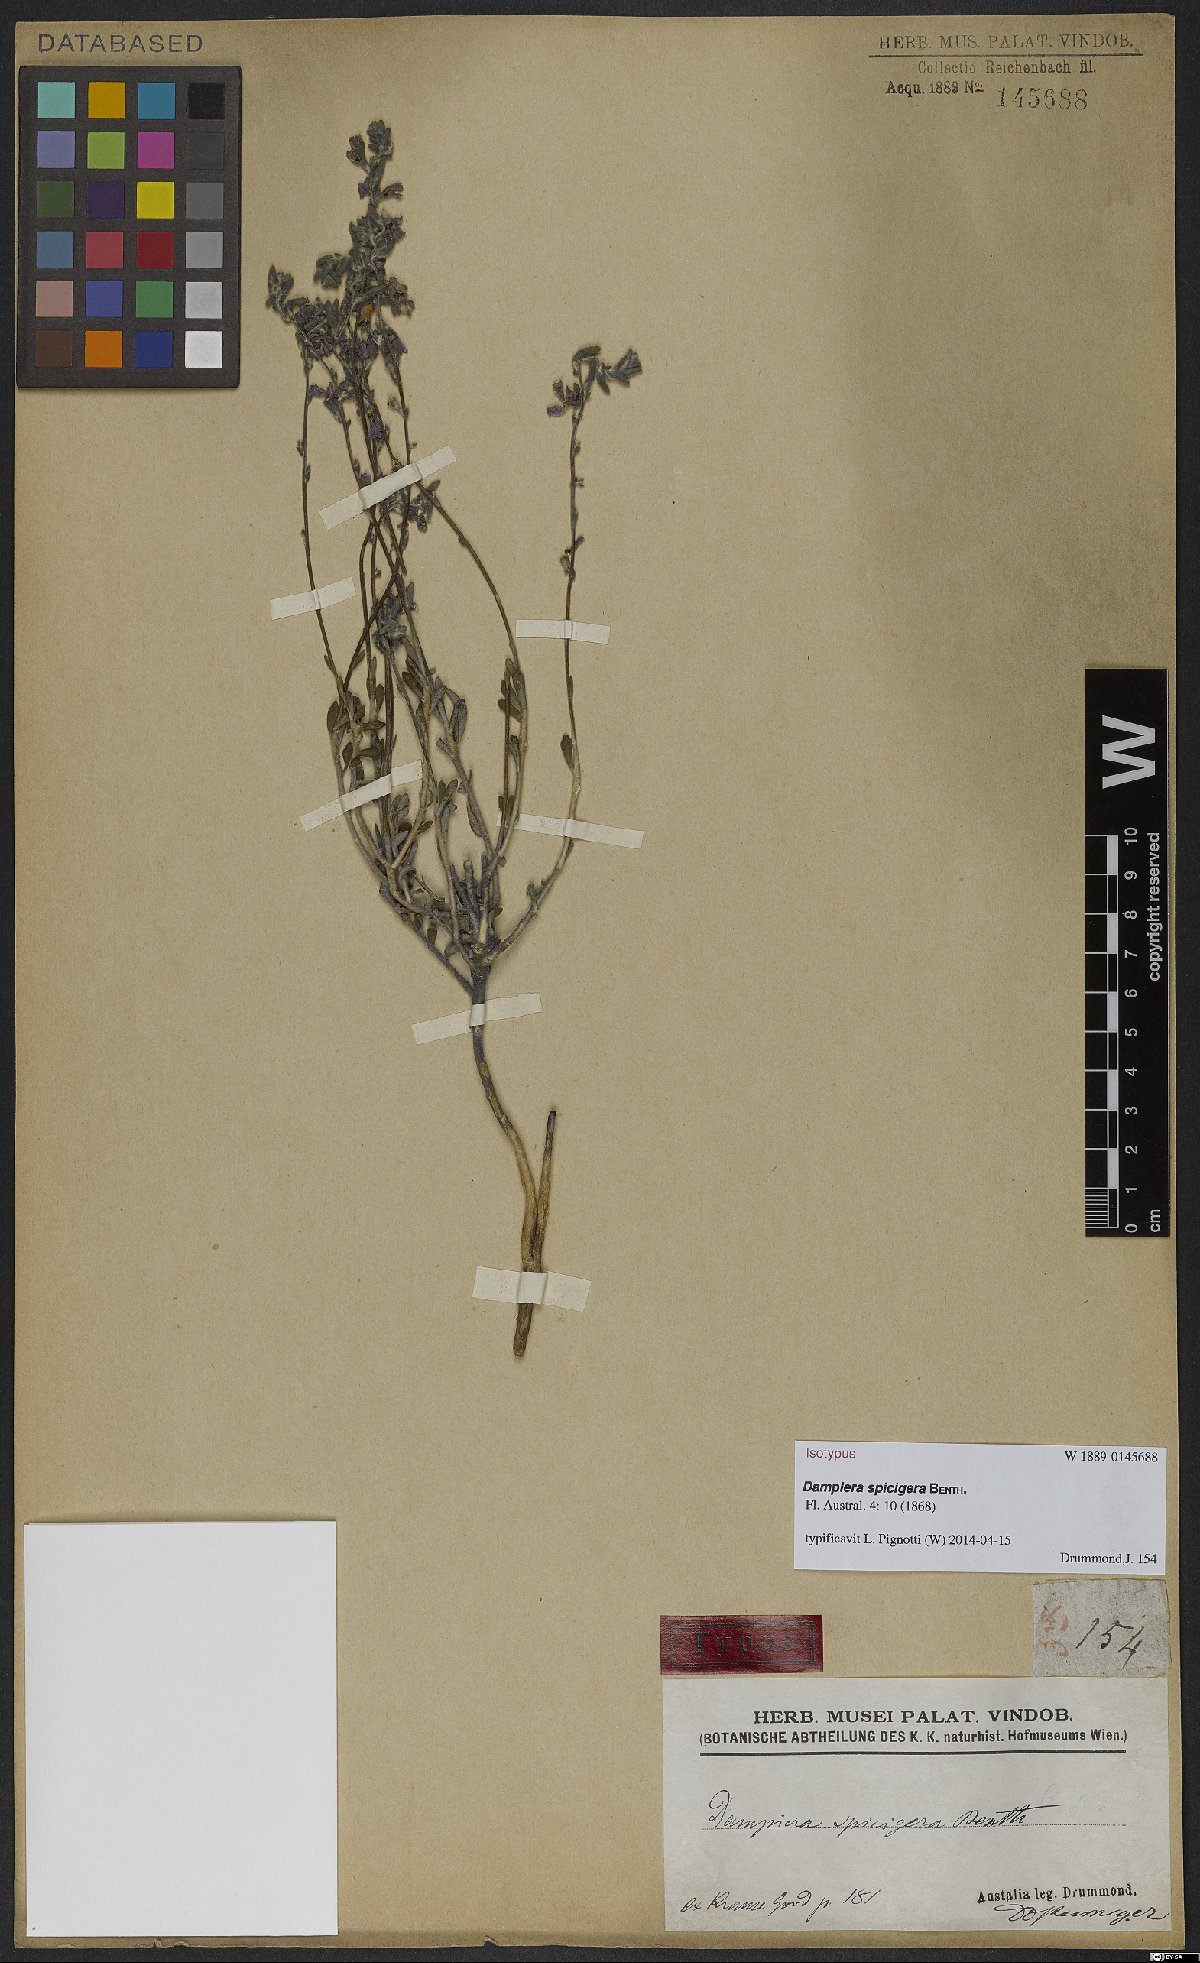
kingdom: Plantae
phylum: Tracheophyta
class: Magnoliopsida
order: Asterales
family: Goodeniaceae
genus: Dampiera
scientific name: Dampiera spicigera
